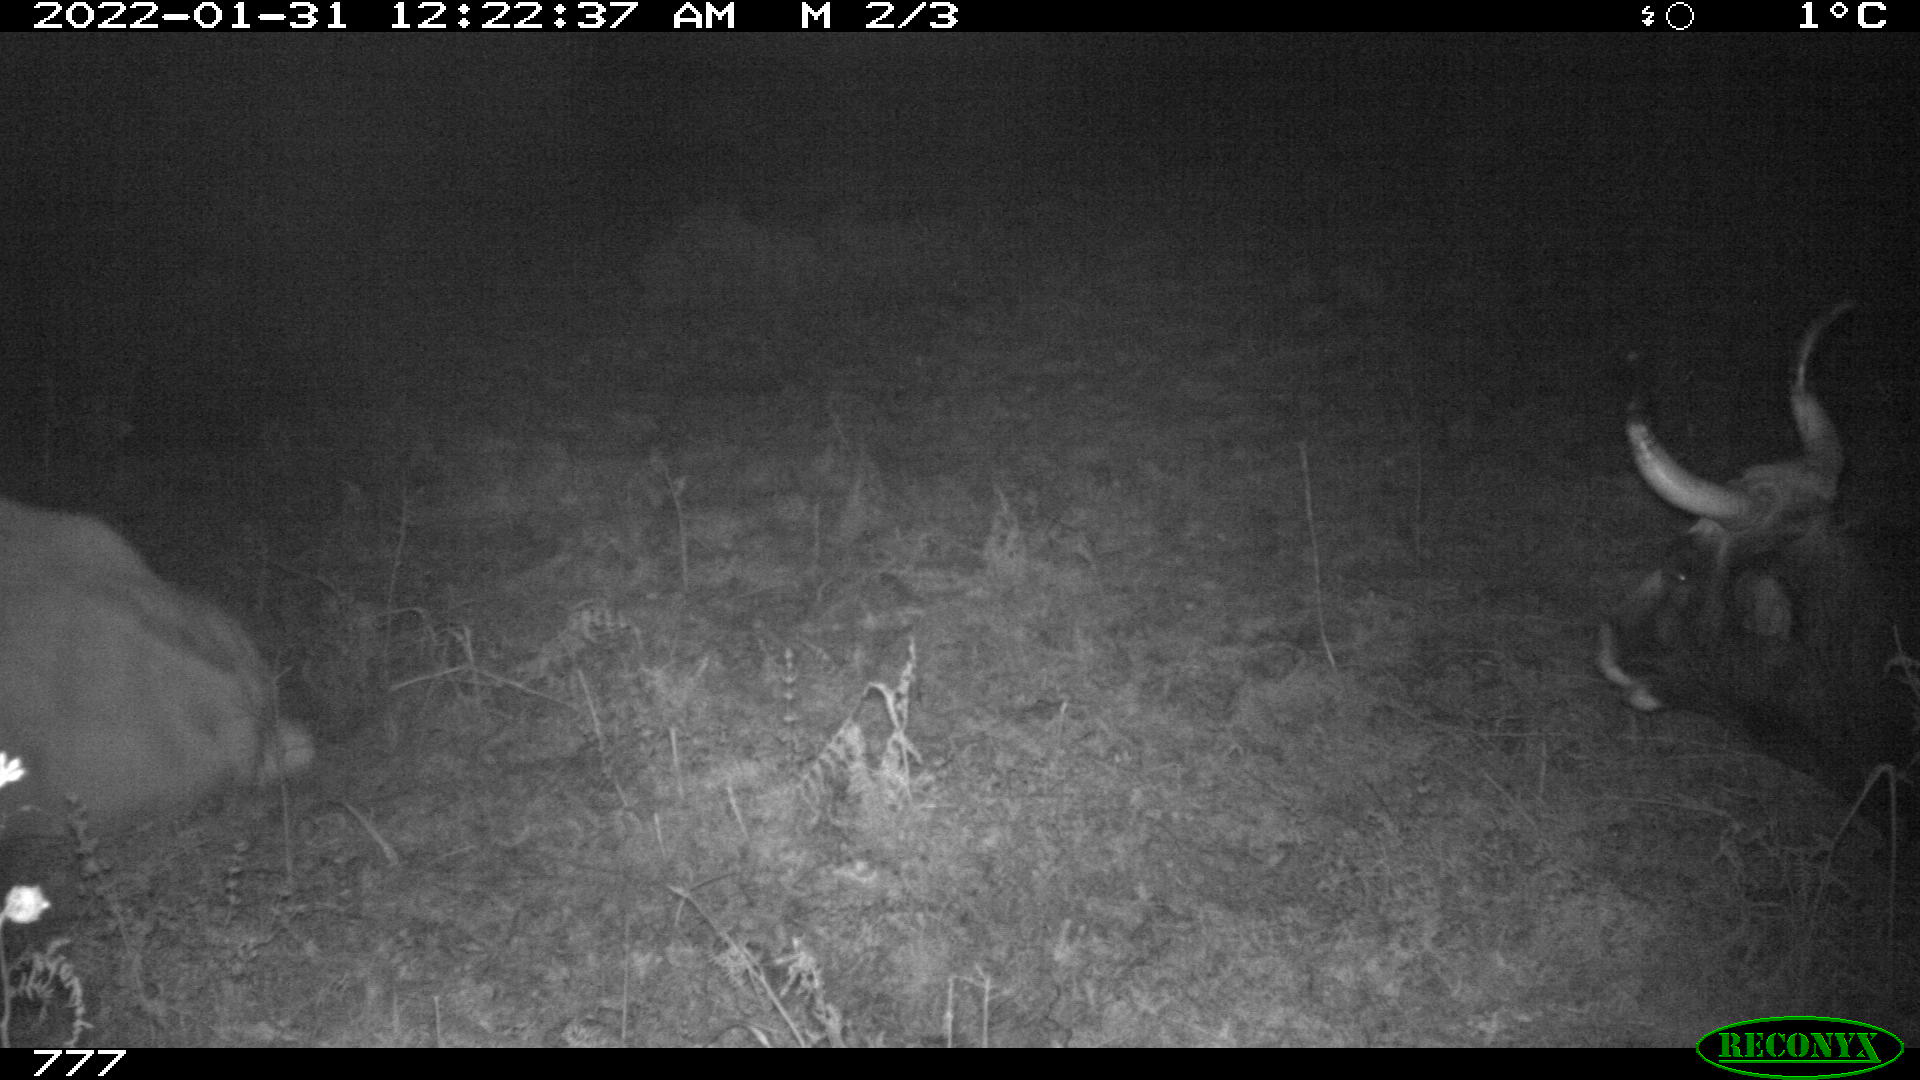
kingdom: Animalia
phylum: Chordata
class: Mammalia
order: Artiodactyla
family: Bovidae
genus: Bos
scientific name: Bos taurus
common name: Domesticated cattle
